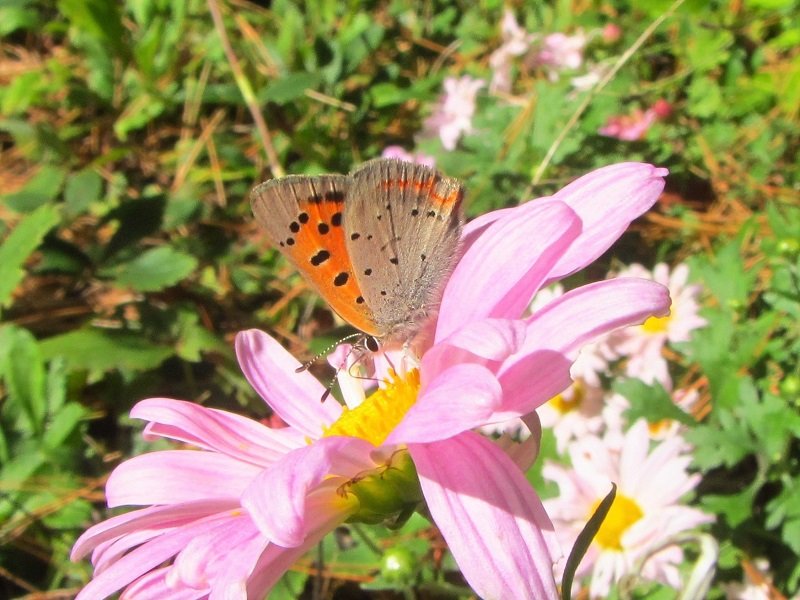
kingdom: Animalia
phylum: Arthropoda
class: Insecta
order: Lepidoptera
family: Lycaenidae
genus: Lycaena
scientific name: Lycaena phlaeas
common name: American Copper
